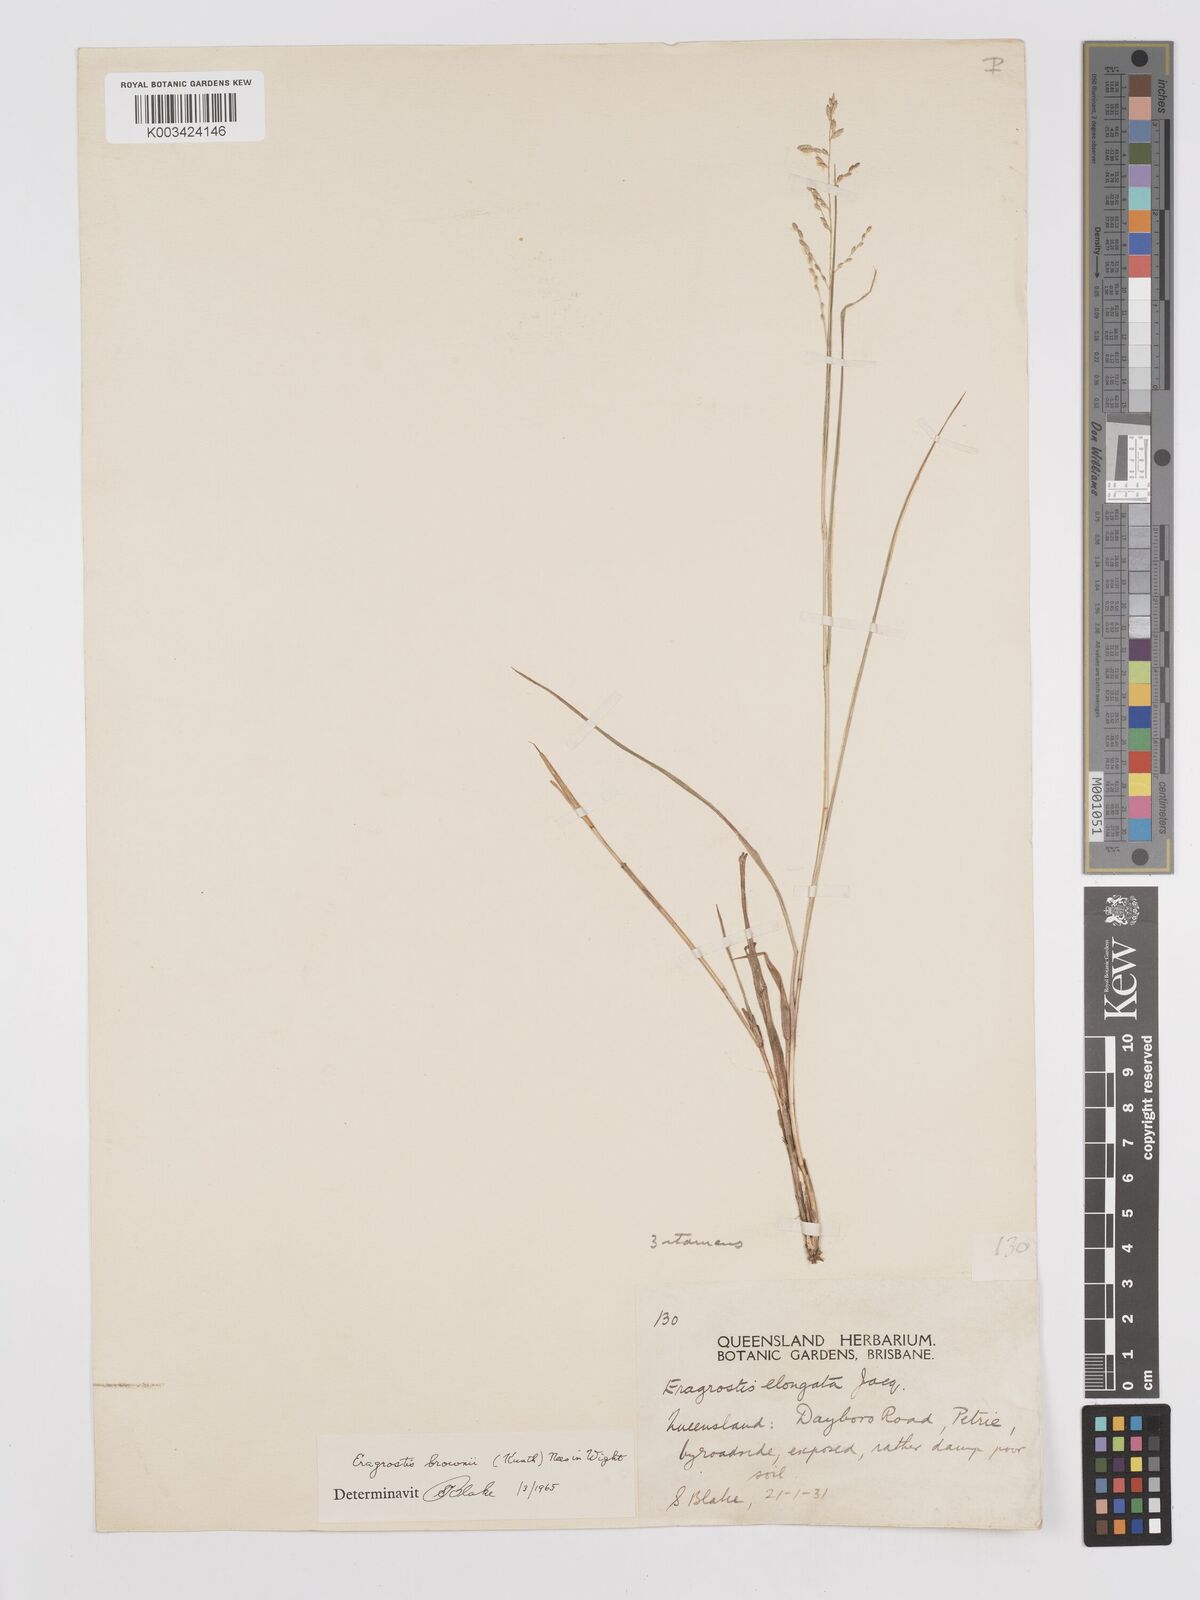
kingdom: Plantae
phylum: Tracheophyta
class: Liliopsida
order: Poales
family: Poaceae
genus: Eragrostis
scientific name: Eragrostis brownii
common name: Lovegrass
